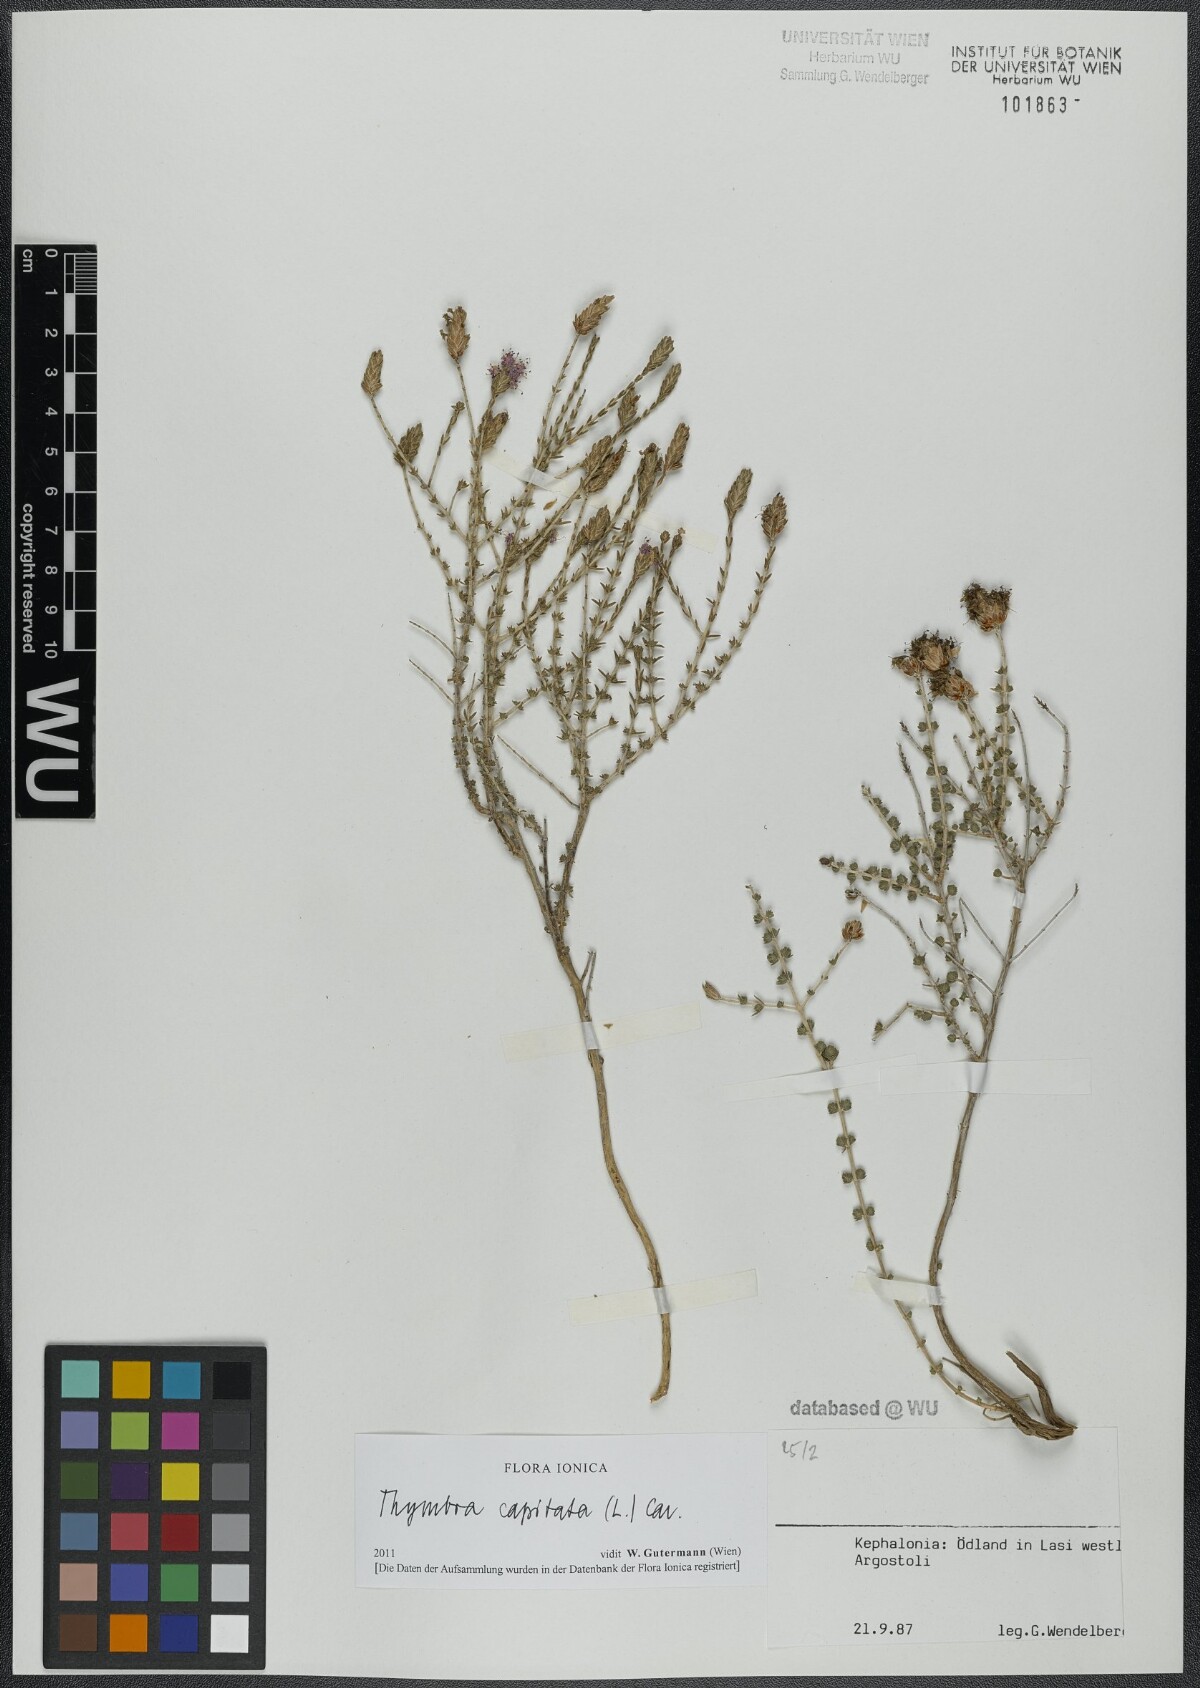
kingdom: Plantae
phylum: Tracheophyta
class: Magnoliopsida
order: Lamiales
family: Lamiaceae
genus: Thymbra
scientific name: Thymbra capitata
